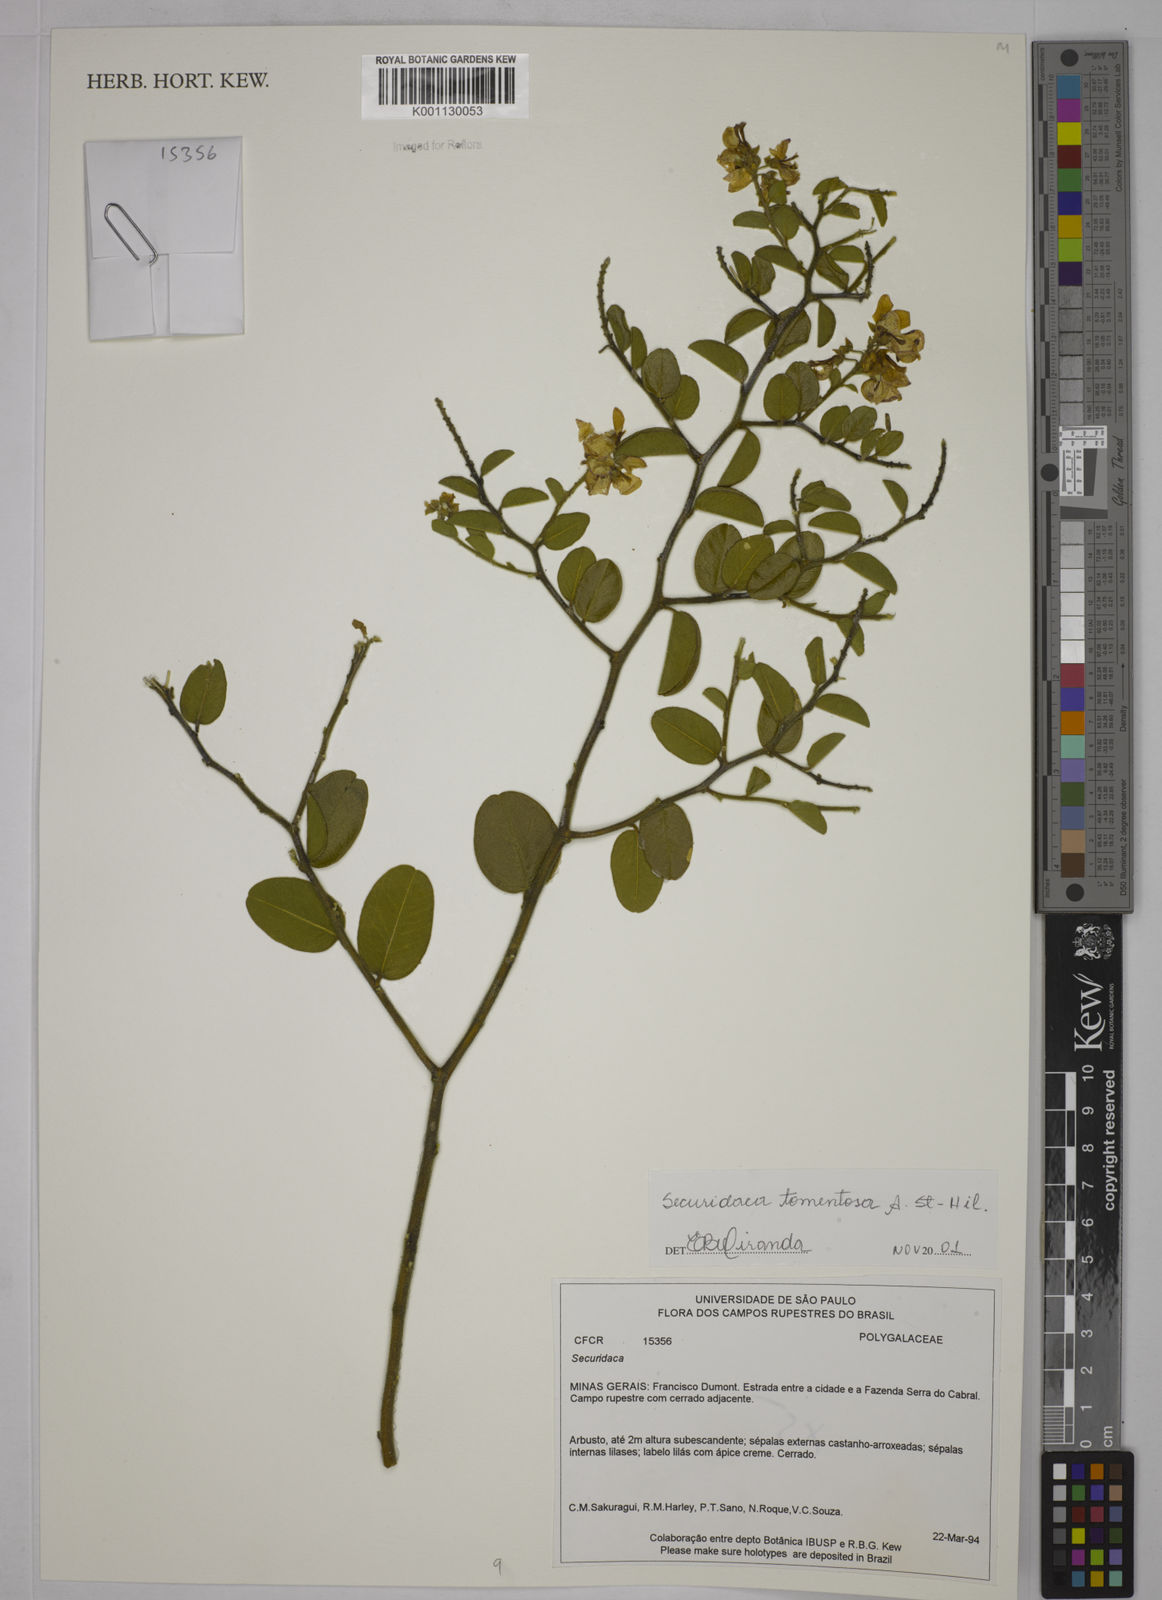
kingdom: Plantae
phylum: Tracheophyta
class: Magnoliopsida
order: Fabales
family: Polygalaceae
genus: Securidaca
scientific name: Securidaca tomentosa
